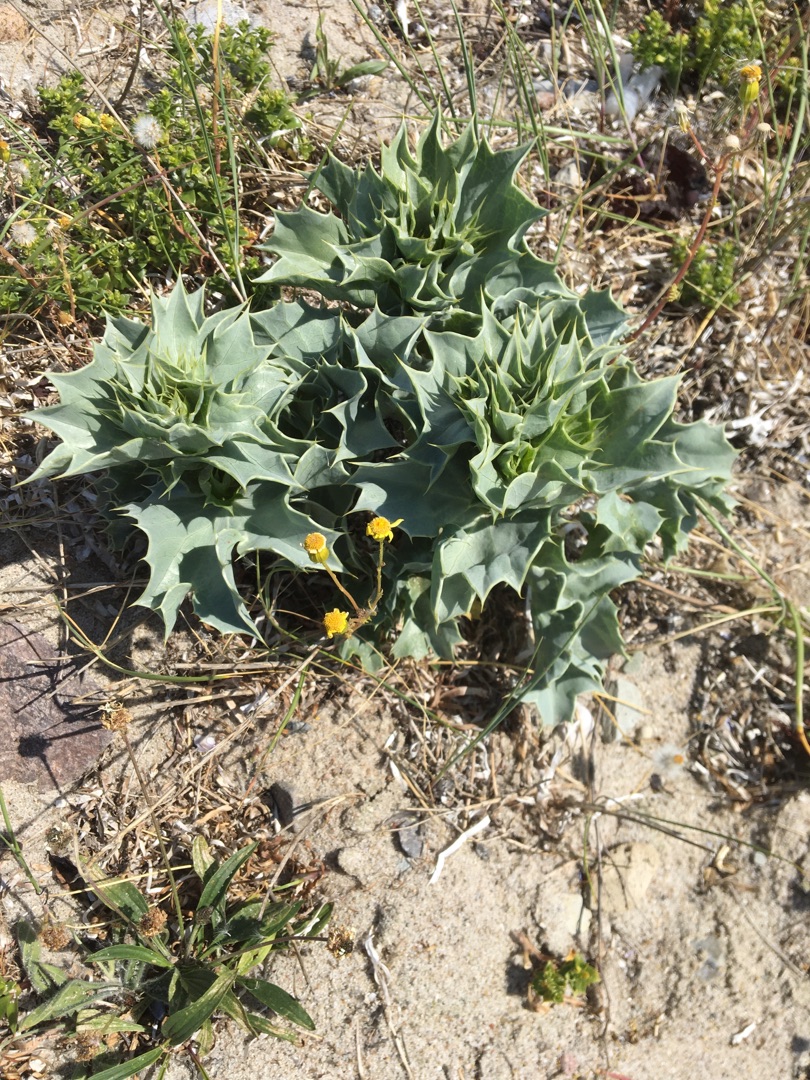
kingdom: Plantae
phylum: Tracheophyta
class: Magnoliopsida
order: Apiales
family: Apiaceae
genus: Eryngium
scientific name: Eryngium maritimum
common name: Strand-mandstro
